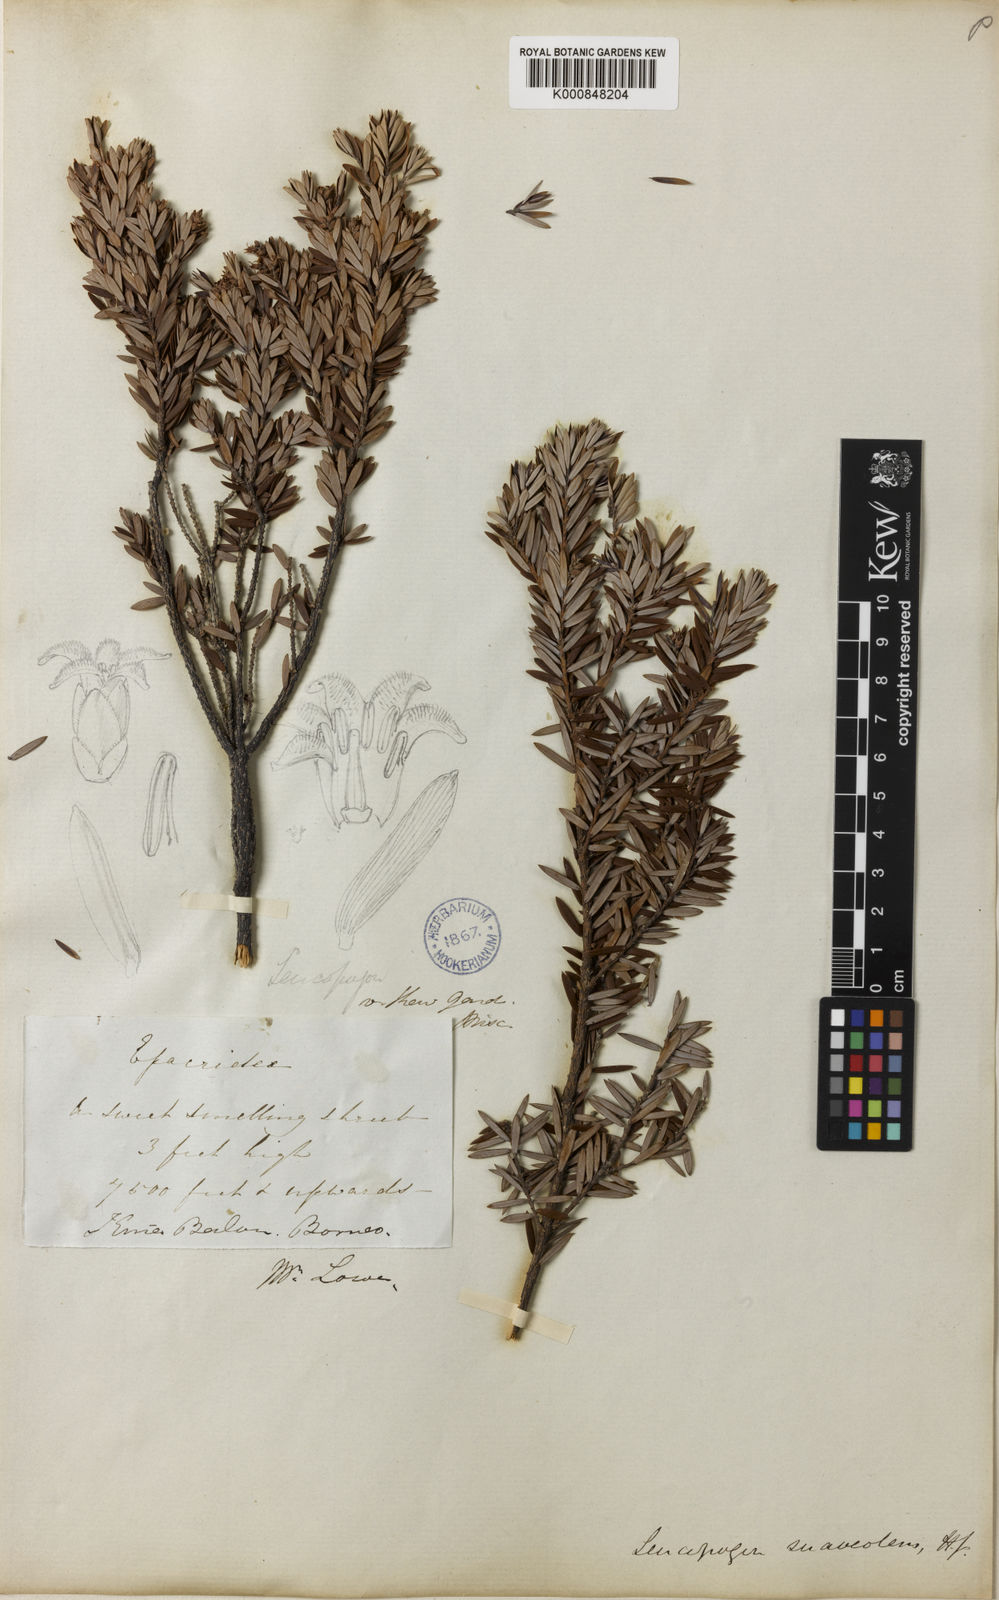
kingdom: Plantae
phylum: Tracheophyta
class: Magnoliopsida
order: Ericales
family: Ericaceae
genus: Styphelia
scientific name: Styphelia
